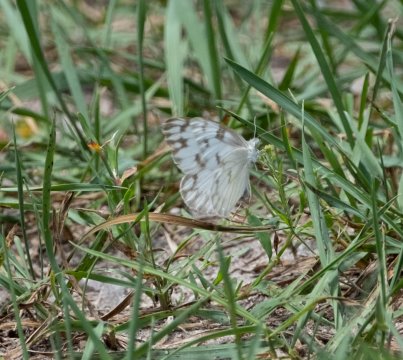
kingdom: Animalia
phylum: Arthropoda
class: Insecta
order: Lepidoptera
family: Pieridae
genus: Pontia
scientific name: Pontia protodice
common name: Checkered White
